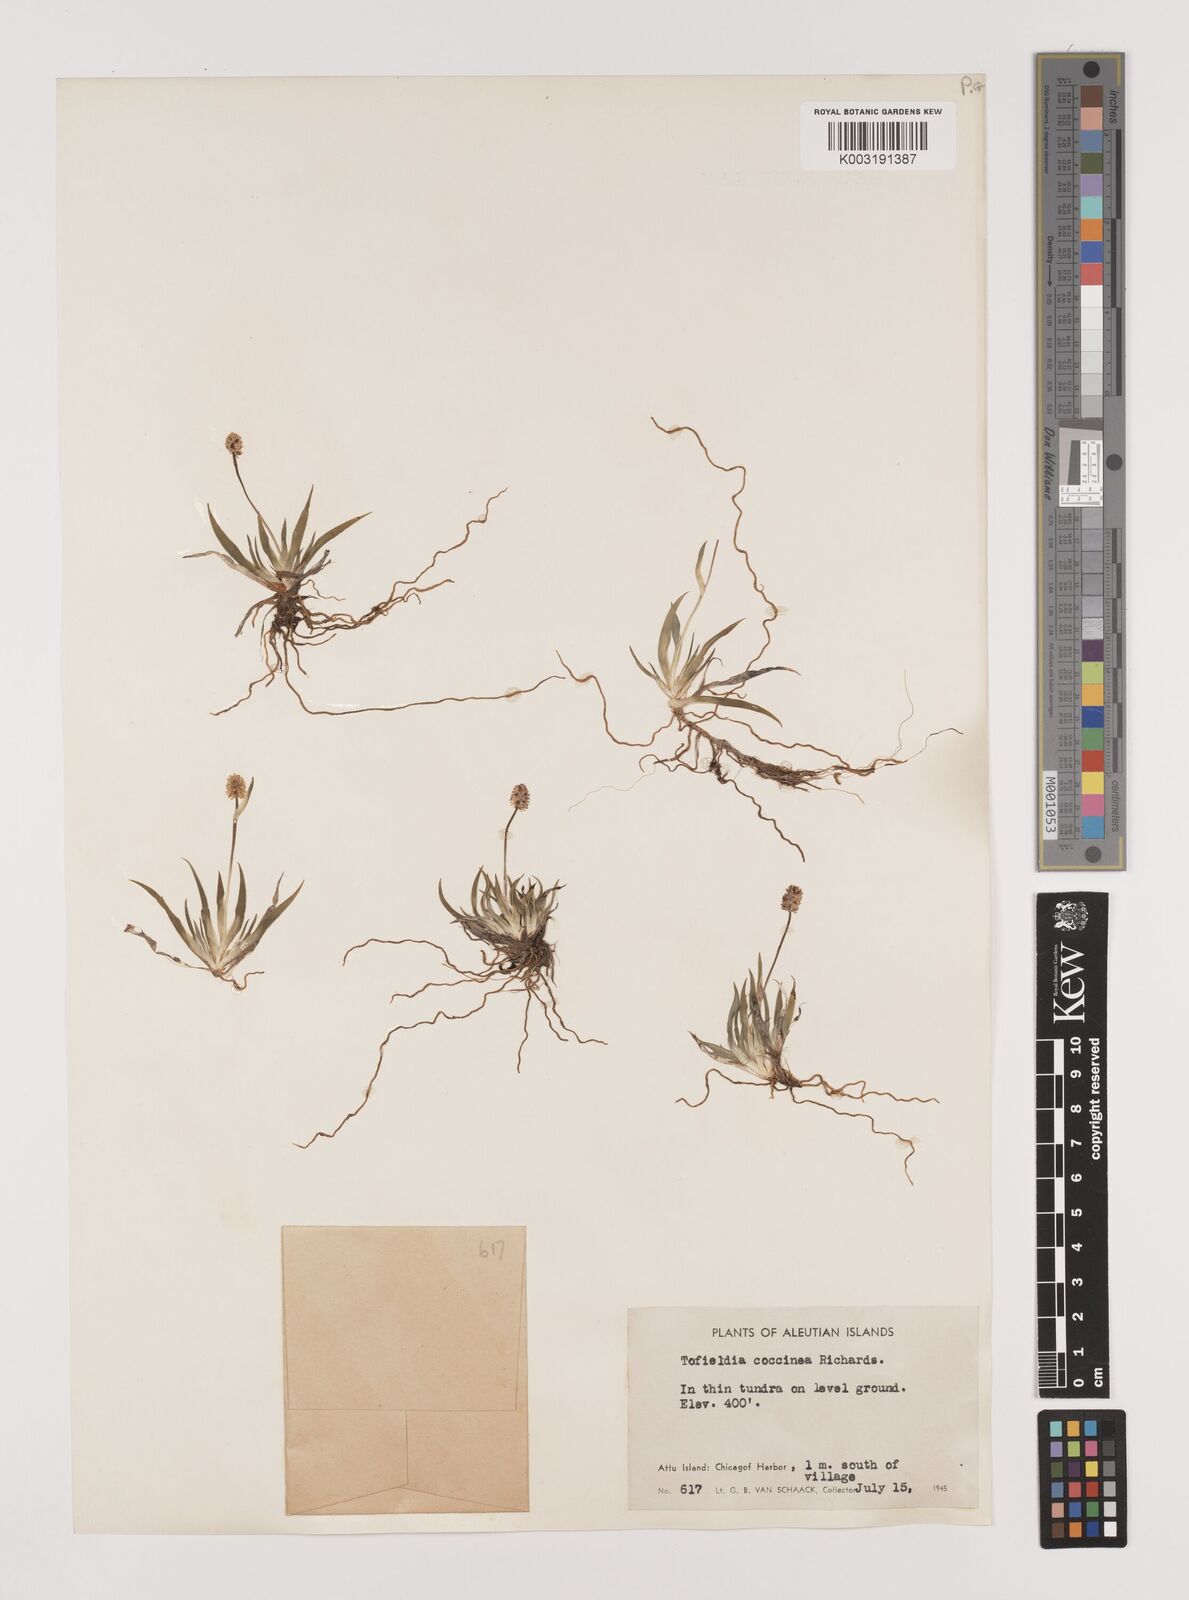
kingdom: Plantae
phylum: Tracheophyta
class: Liliopsida
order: Alismatales
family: Tofieldiaceae
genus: Tofieldia
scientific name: Tofieldia coccinea
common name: Northern false asphodel
